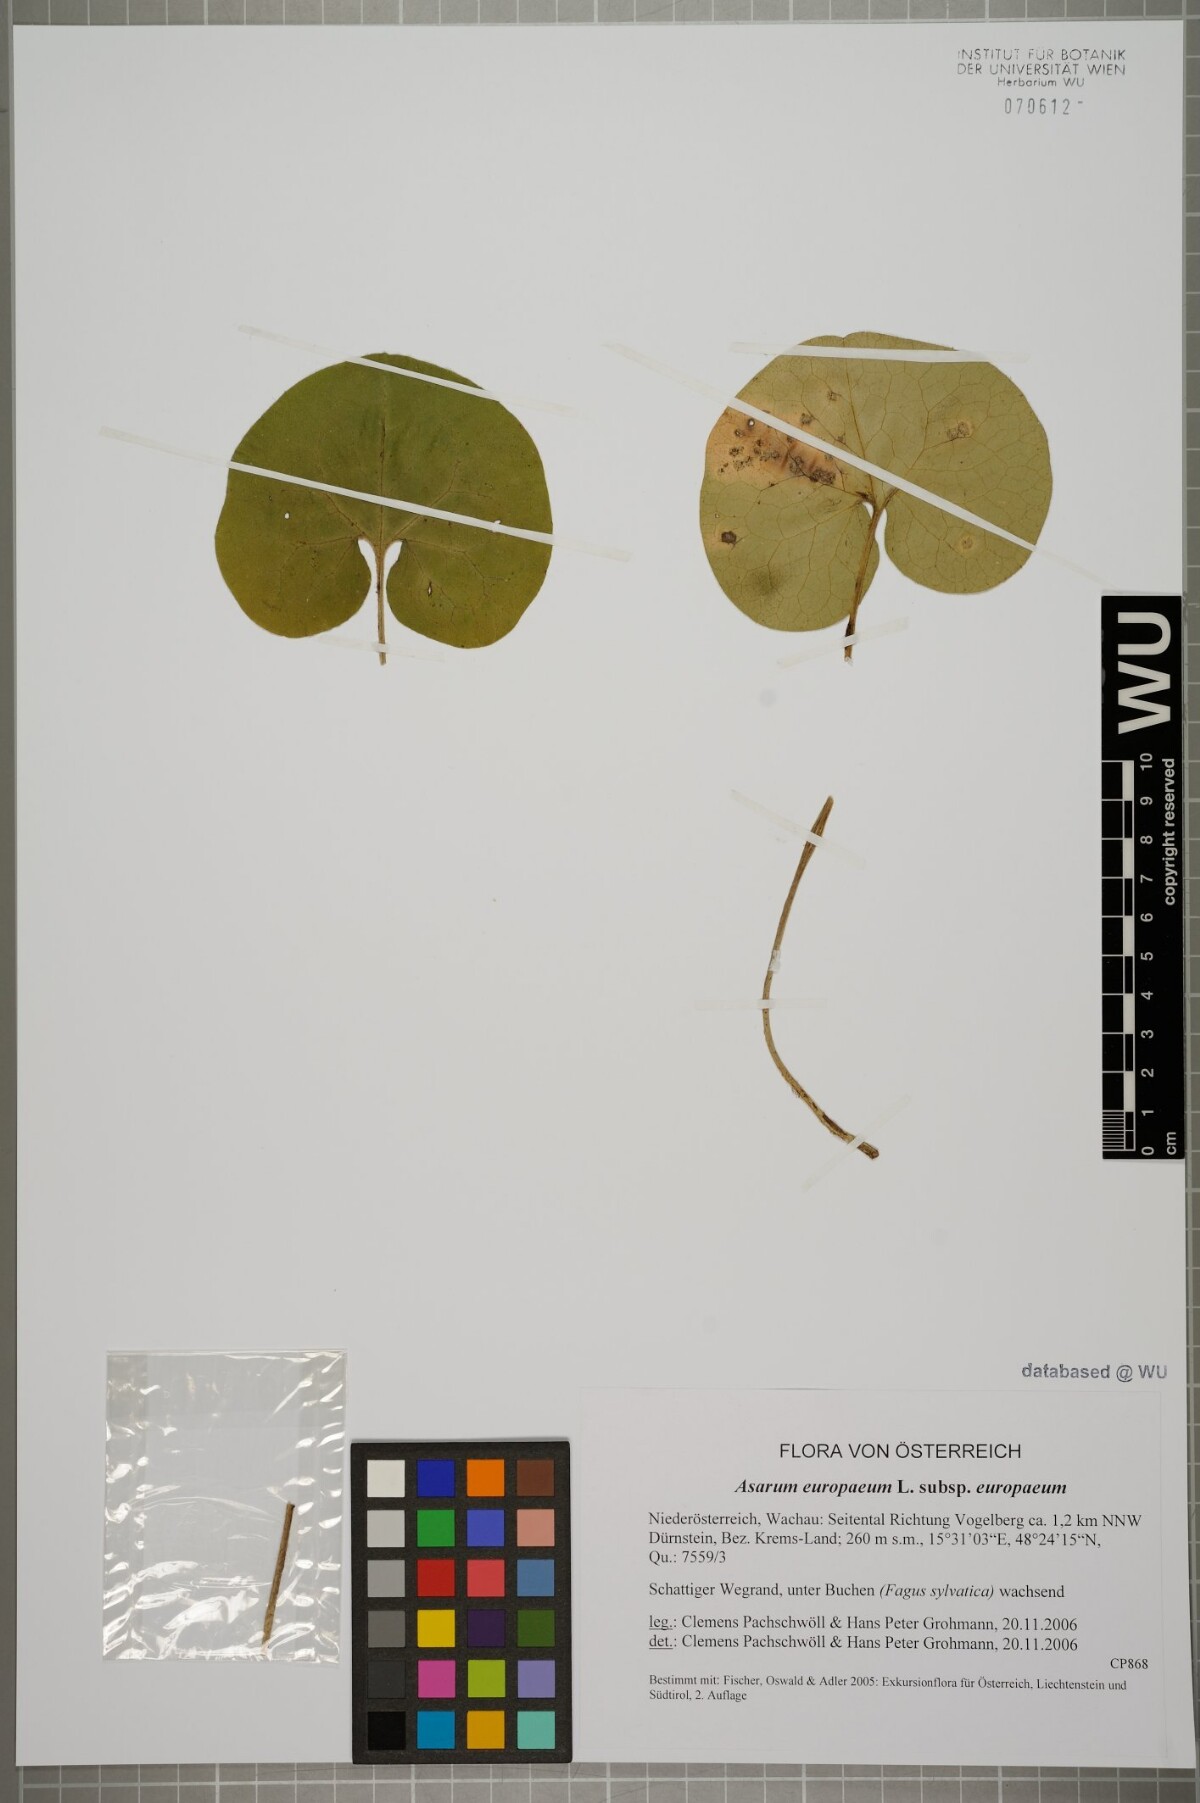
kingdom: Plantae
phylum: Tracheophyta
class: Magnoliopsida
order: Piperales
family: Aristolochiaceae
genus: Asarum
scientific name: Asarum europaeum
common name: Asarabacca
